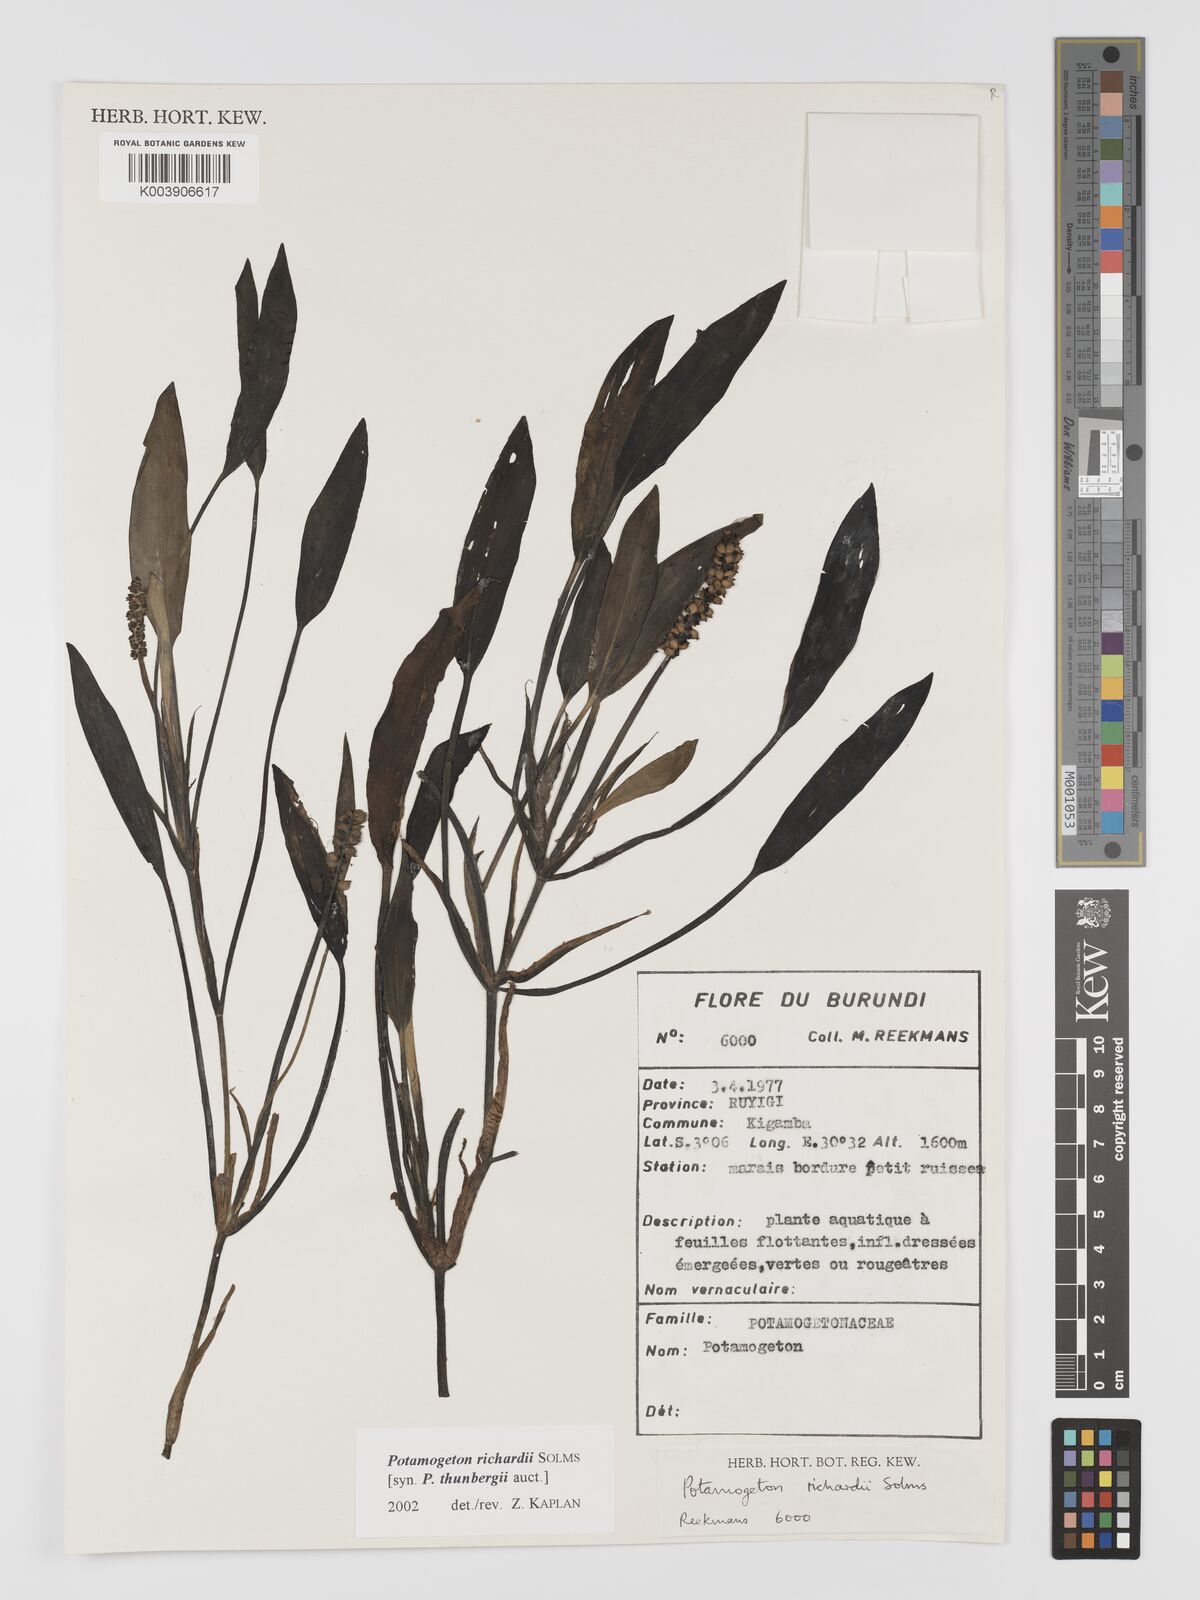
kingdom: Plantae
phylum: Tracheophyta
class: Liliopsida
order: Alismatales
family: Potamogetonaceae
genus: Potamogeton
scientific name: Potamogeton nodosus
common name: Loddon pondweed
